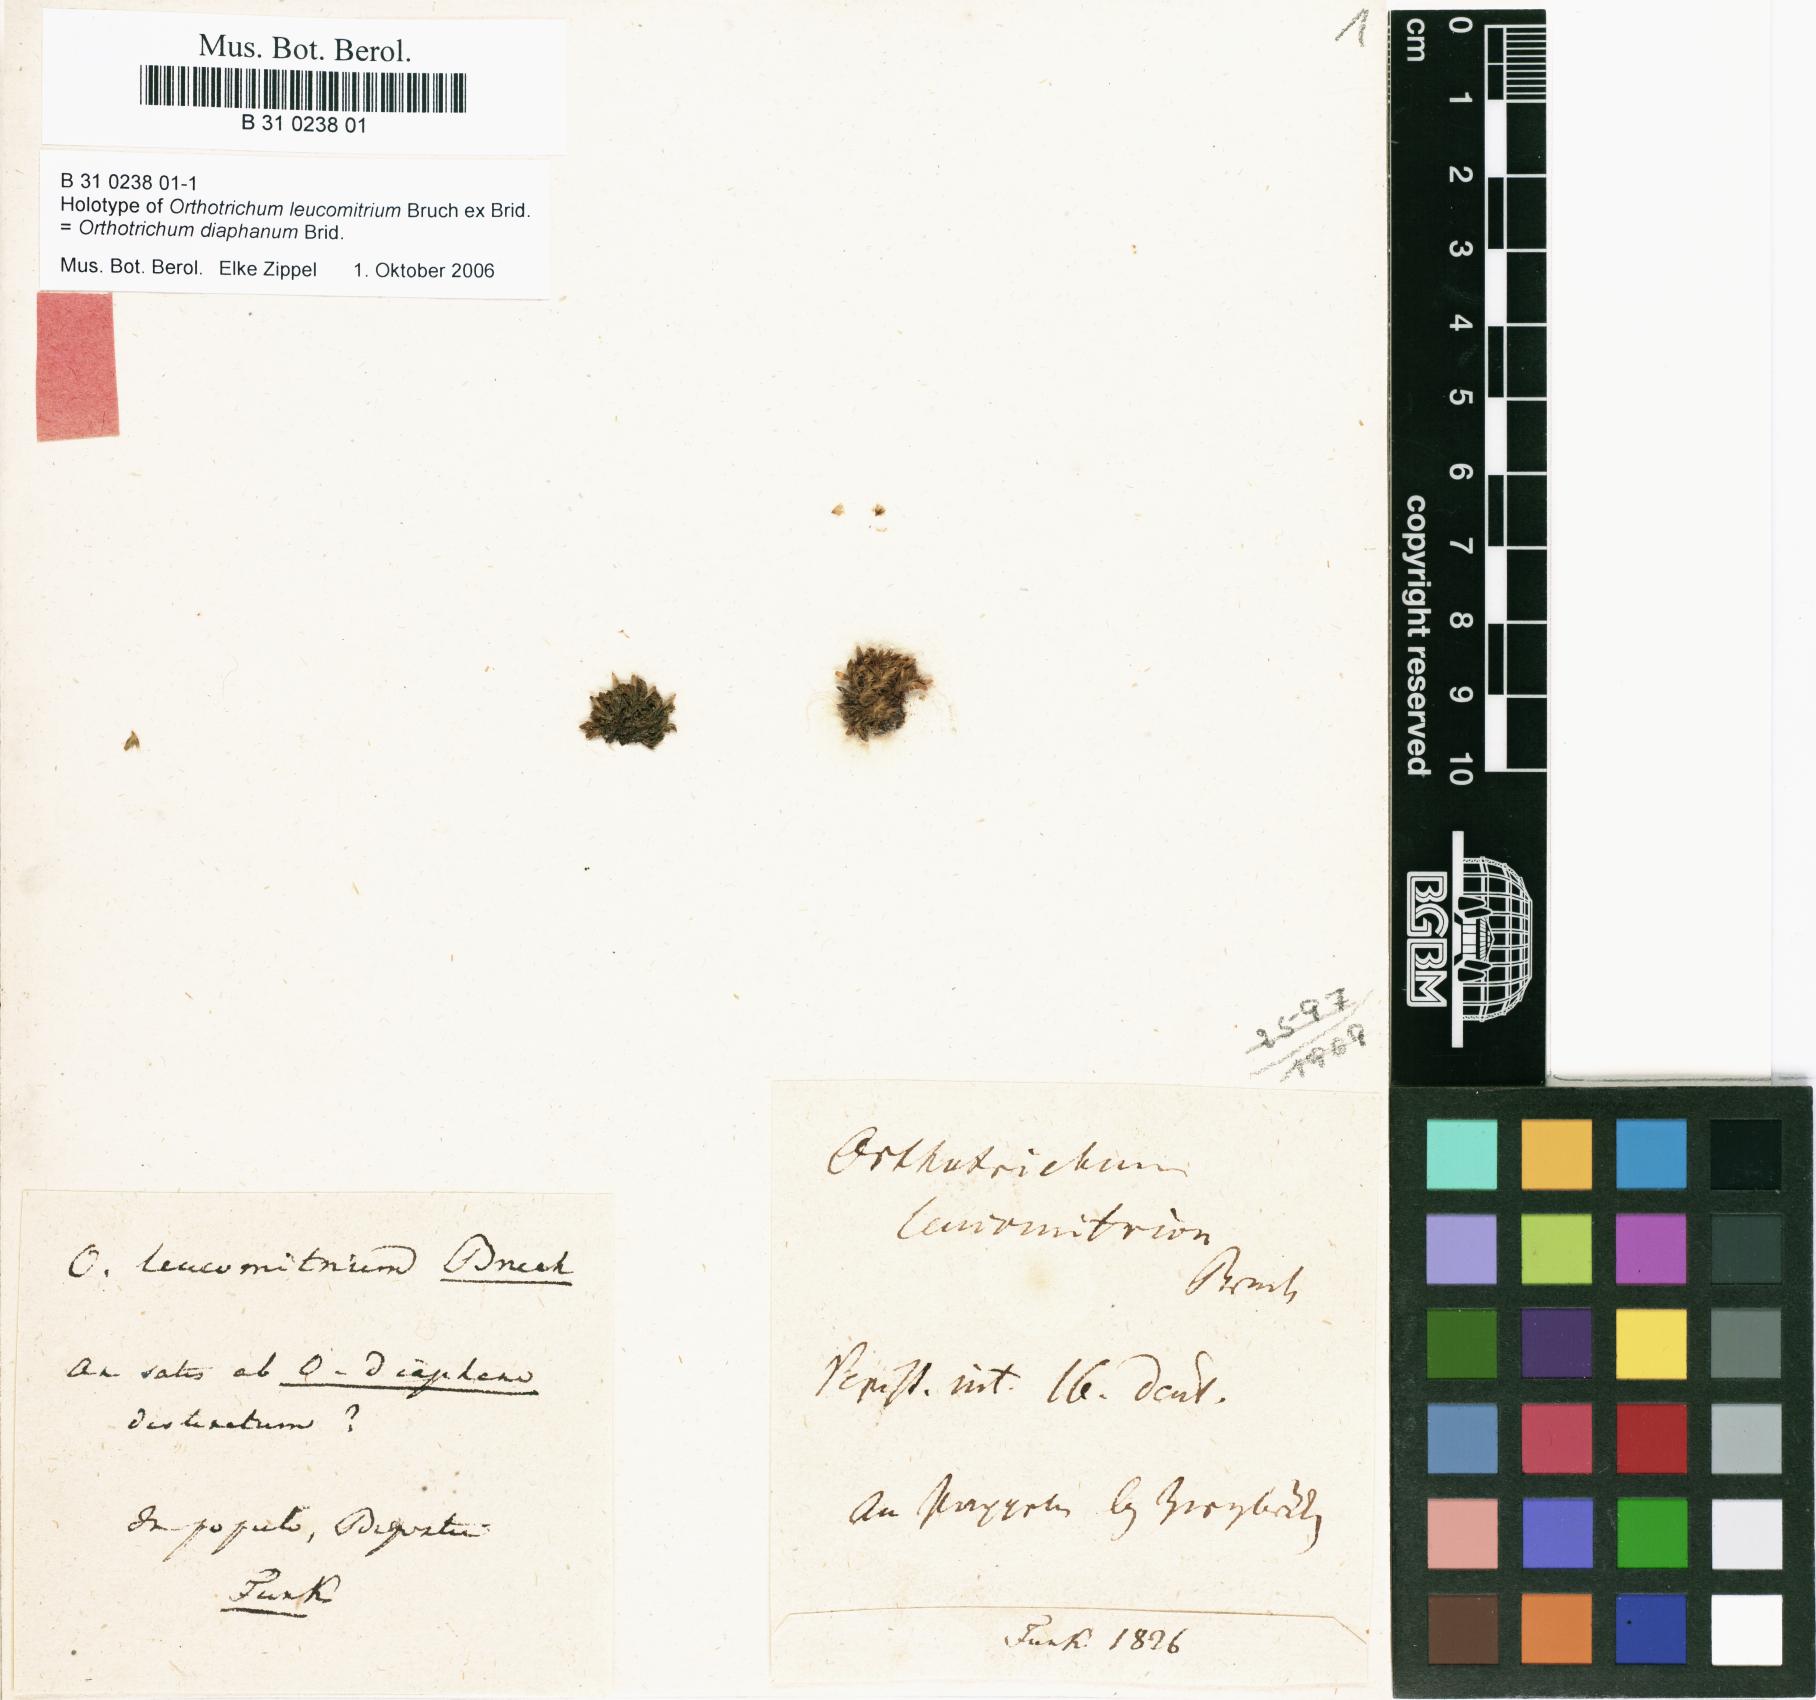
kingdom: Plantae
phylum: Bryophyta
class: Bryopsida
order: Orthotrichales
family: Orthotrichaceae
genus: Orthotrichum
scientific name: Orthotrichum diaphanum
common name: White-tipped bristle-moss
